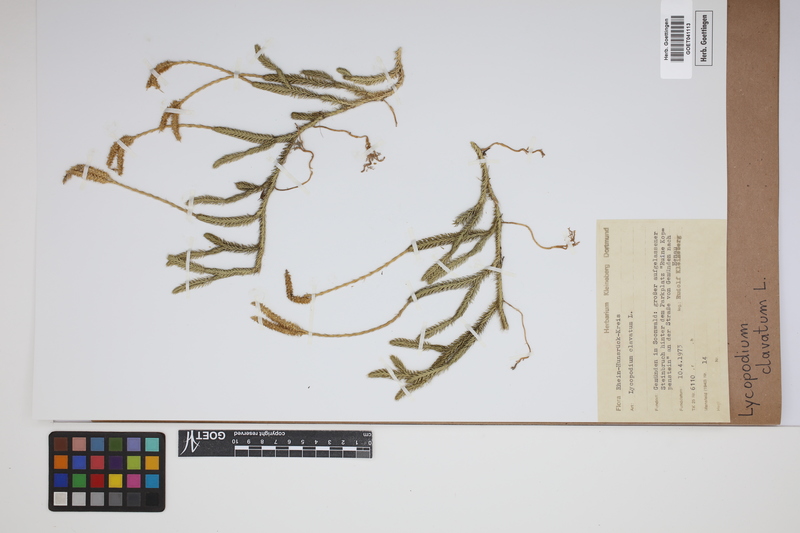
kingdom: Plantae
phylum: Tracheophyta
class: Lycopodiopsida
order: Lycopodiales
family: Lycopodiaceae
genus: Lycopodium
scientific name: Lycopodium clavatum
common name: Stag's-horn clubmoss
